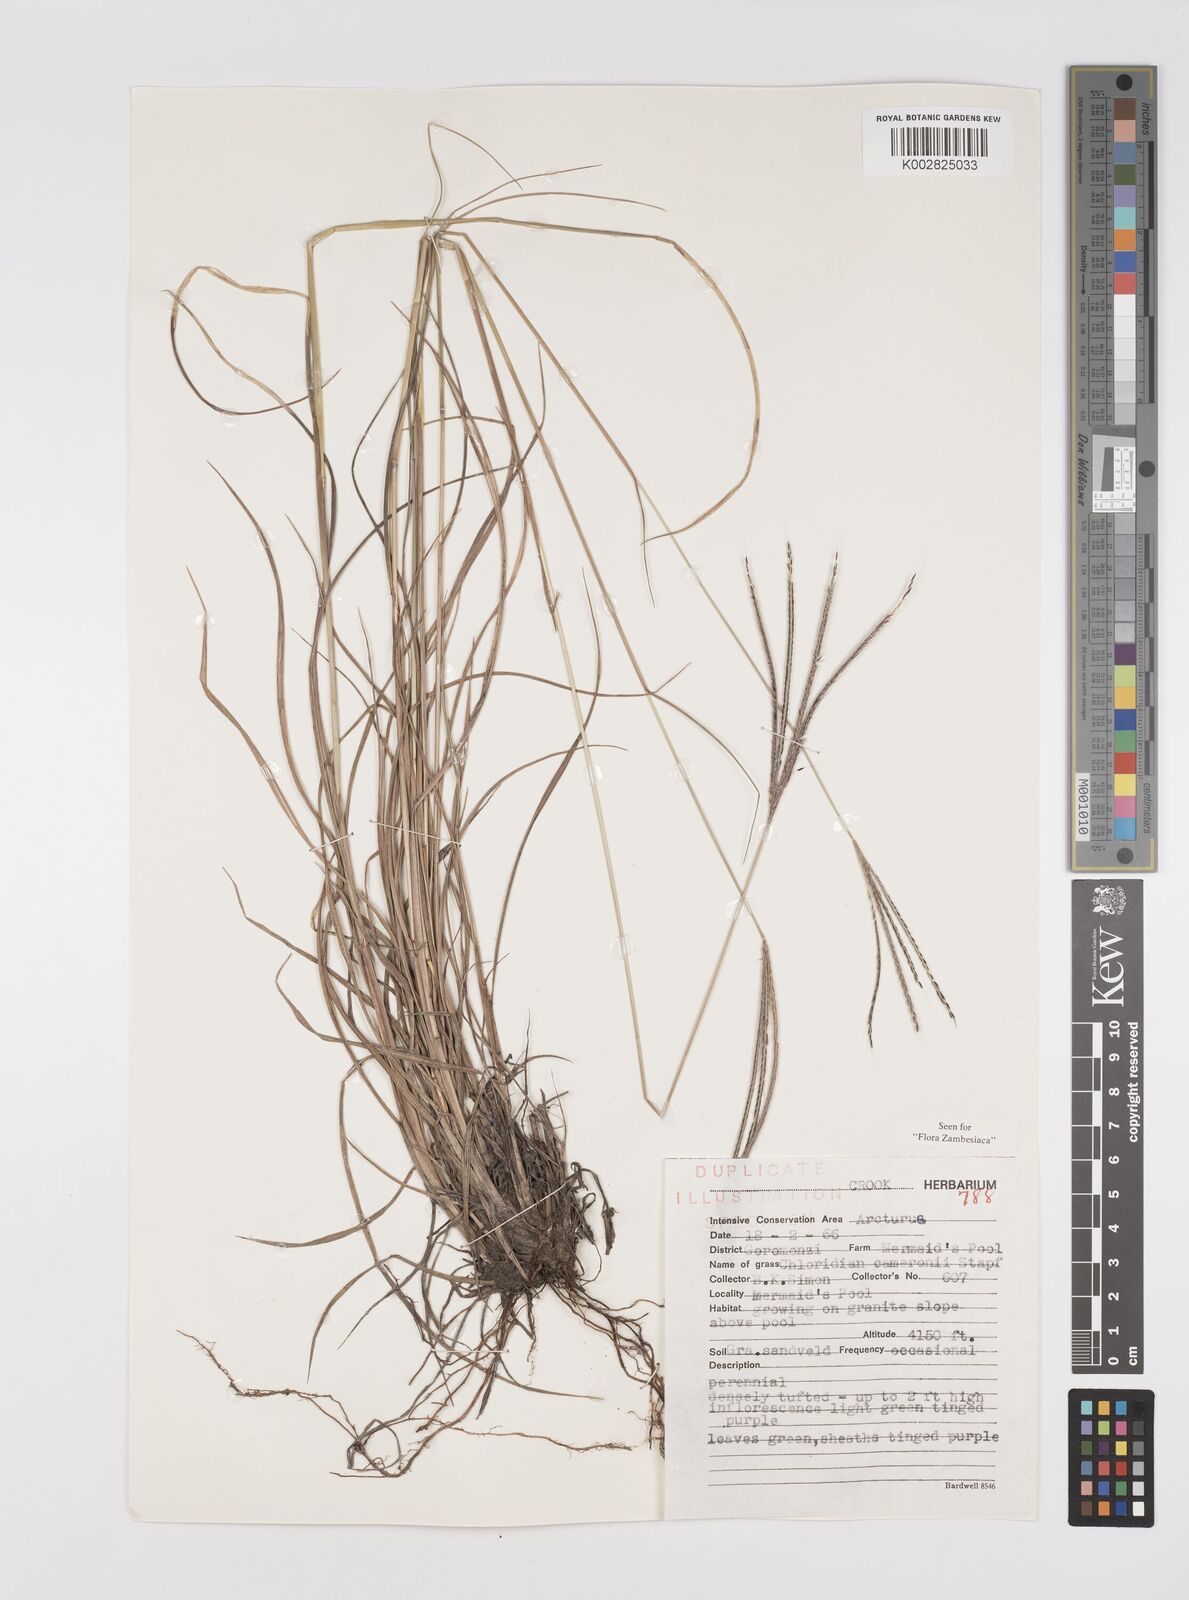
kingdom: Plantae
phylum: Tracheophyta
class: Liliopsida
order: Poales
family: Poaceae
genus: Stereochlaena
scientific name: Stereochlaena cameronii
